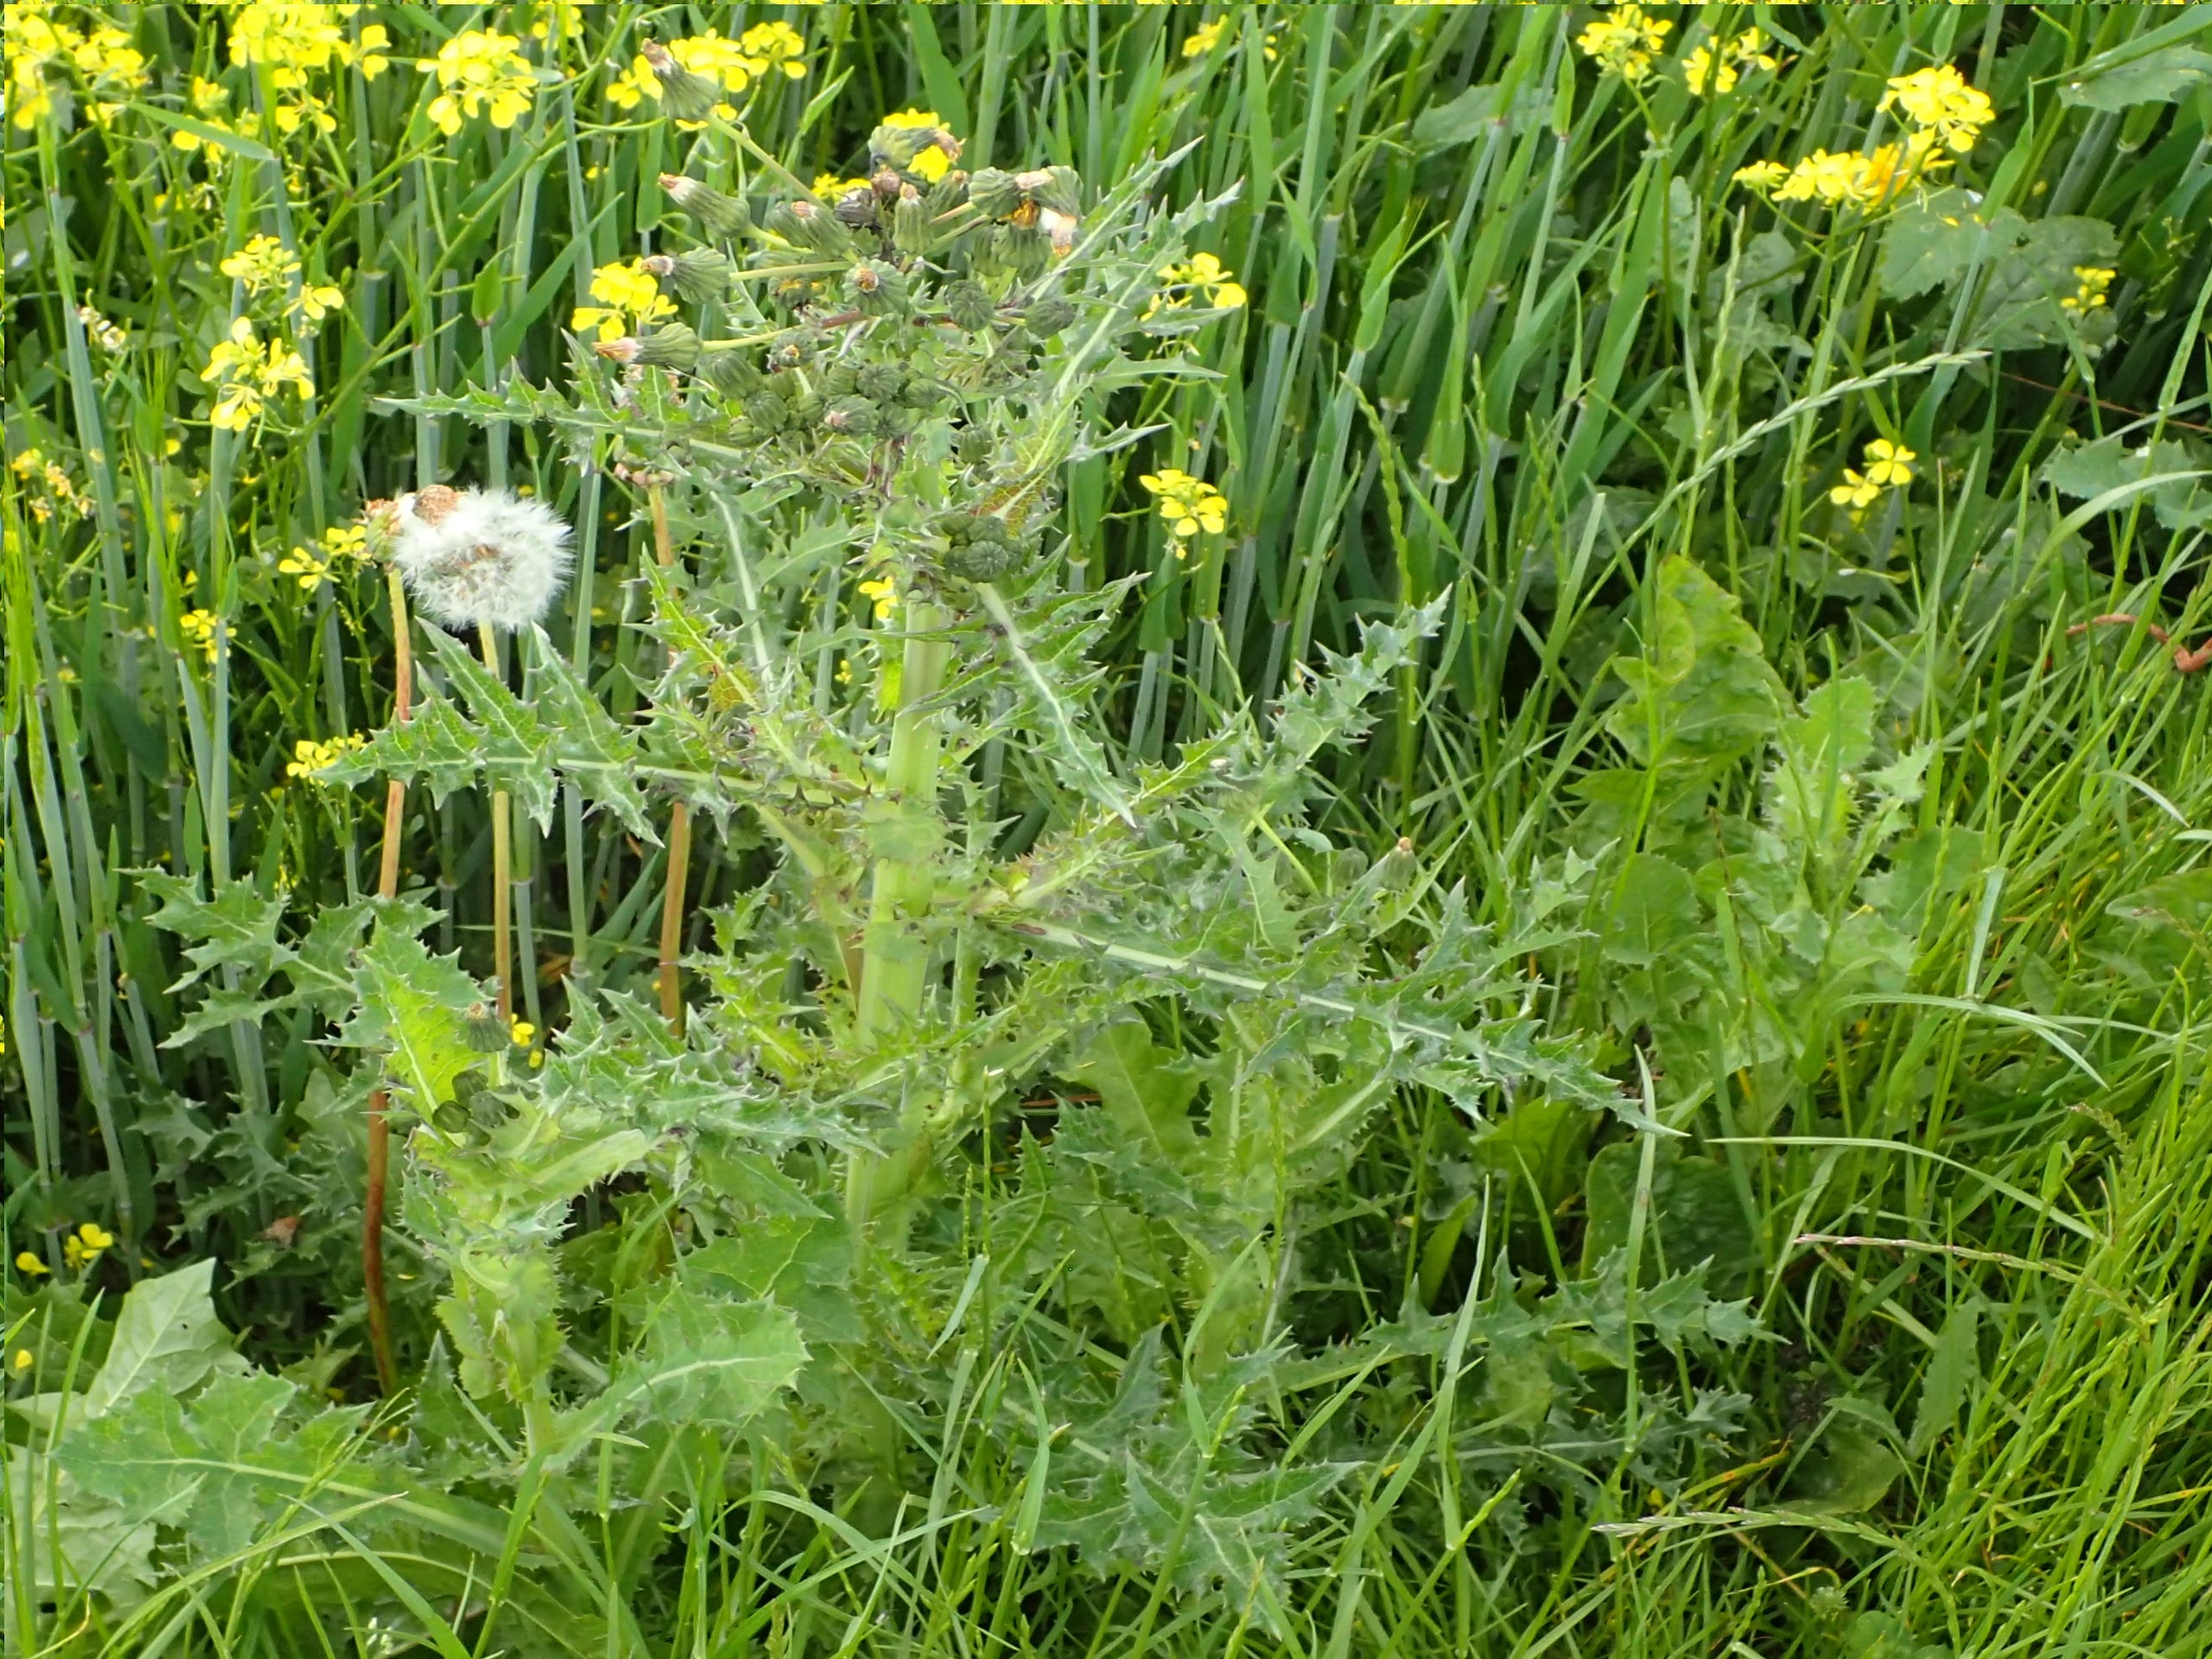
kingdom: Plantae
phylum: Tracheophyta
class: Magnoliopsida
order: Asterales
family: Asteraceae
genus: Sonchus
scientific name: Sonchus asper
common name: Ru svinemælk
